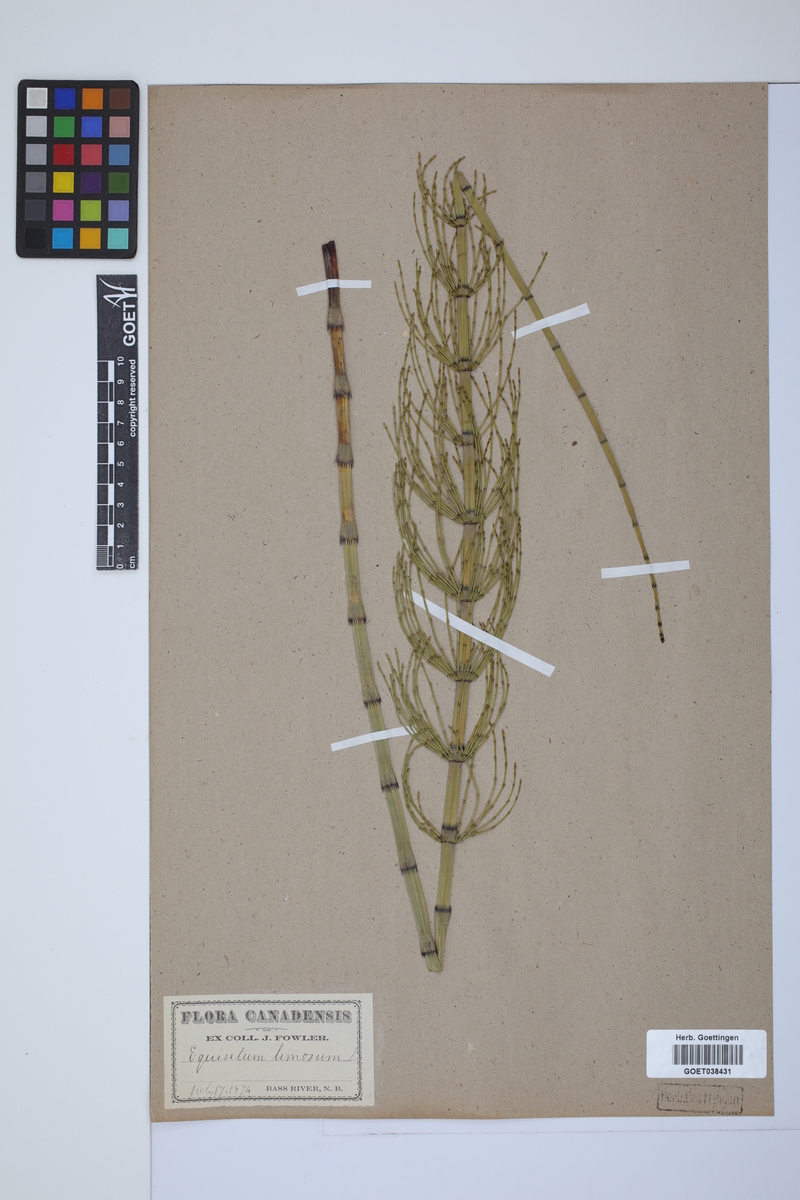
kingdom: Plantae
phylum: Tracheophyta
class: Polypodiopsida
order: Equisetales
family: Equisetaceae
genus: Equisetum
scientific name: Equisetum fluviatile
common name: Water horsetail
